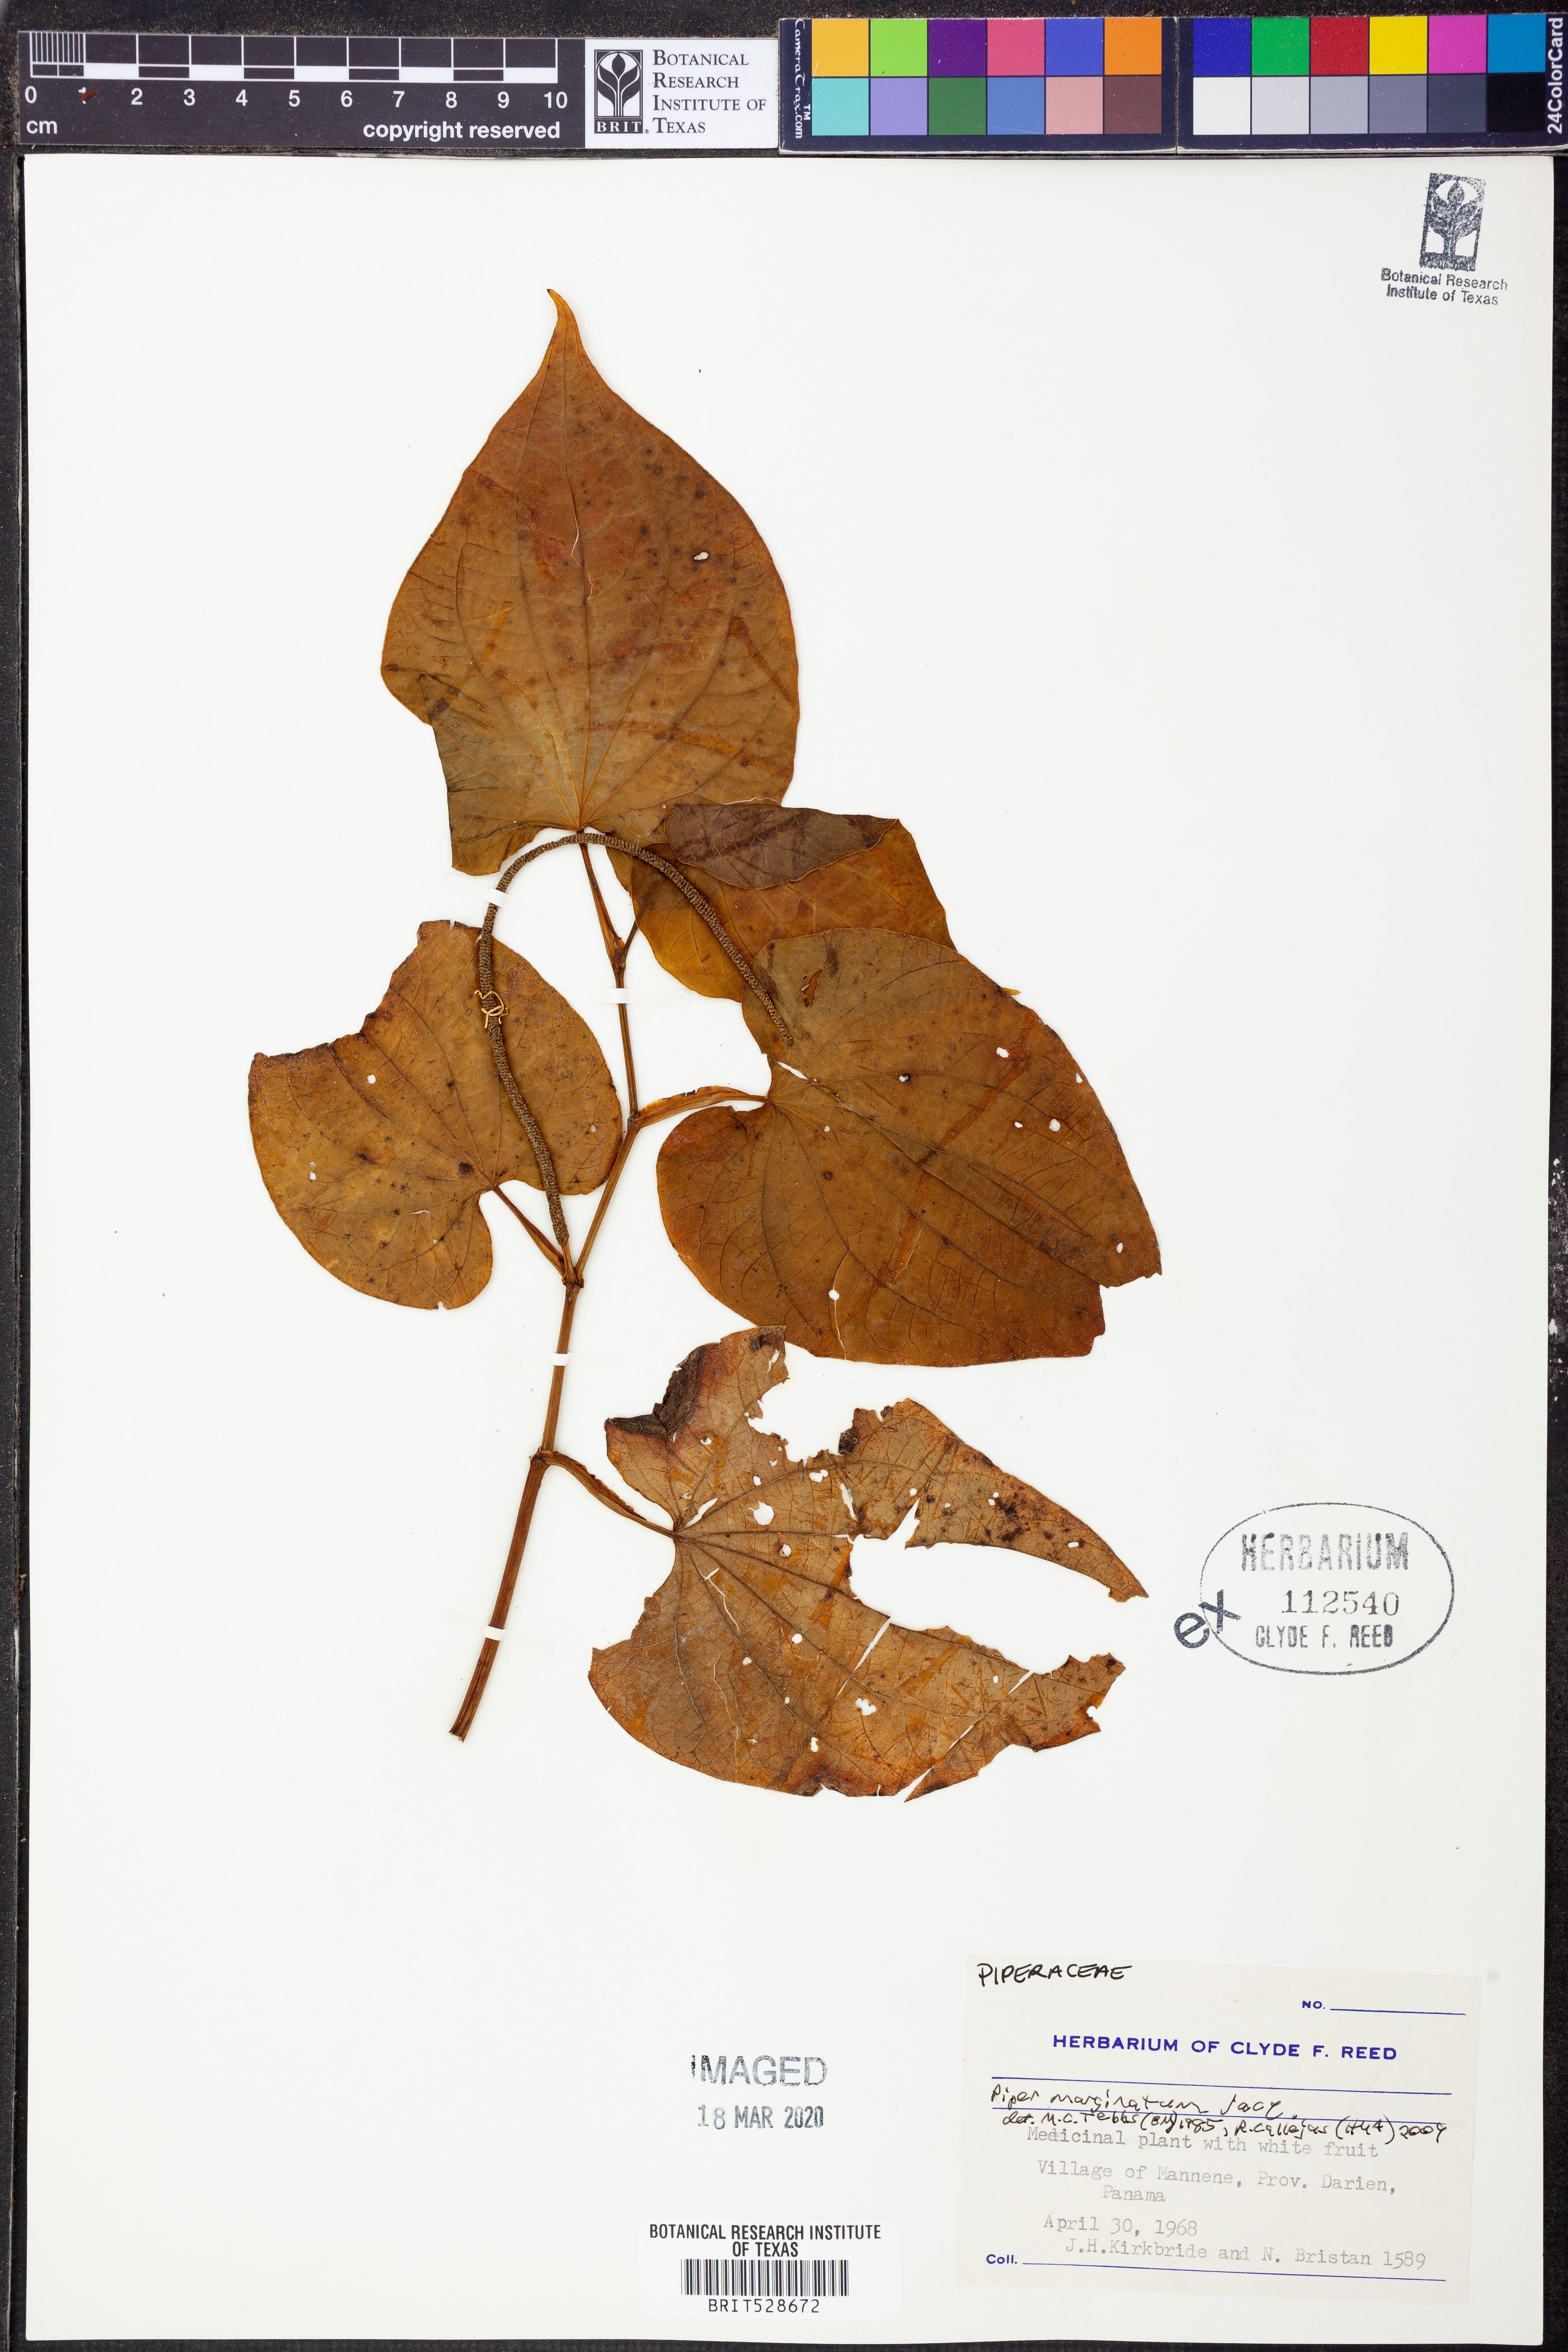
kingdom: Plantae
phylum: Tracheophyta
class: Magnoliopsida
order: Piperales
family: Piperaceae
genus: Piper
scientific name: Piper marginatum
